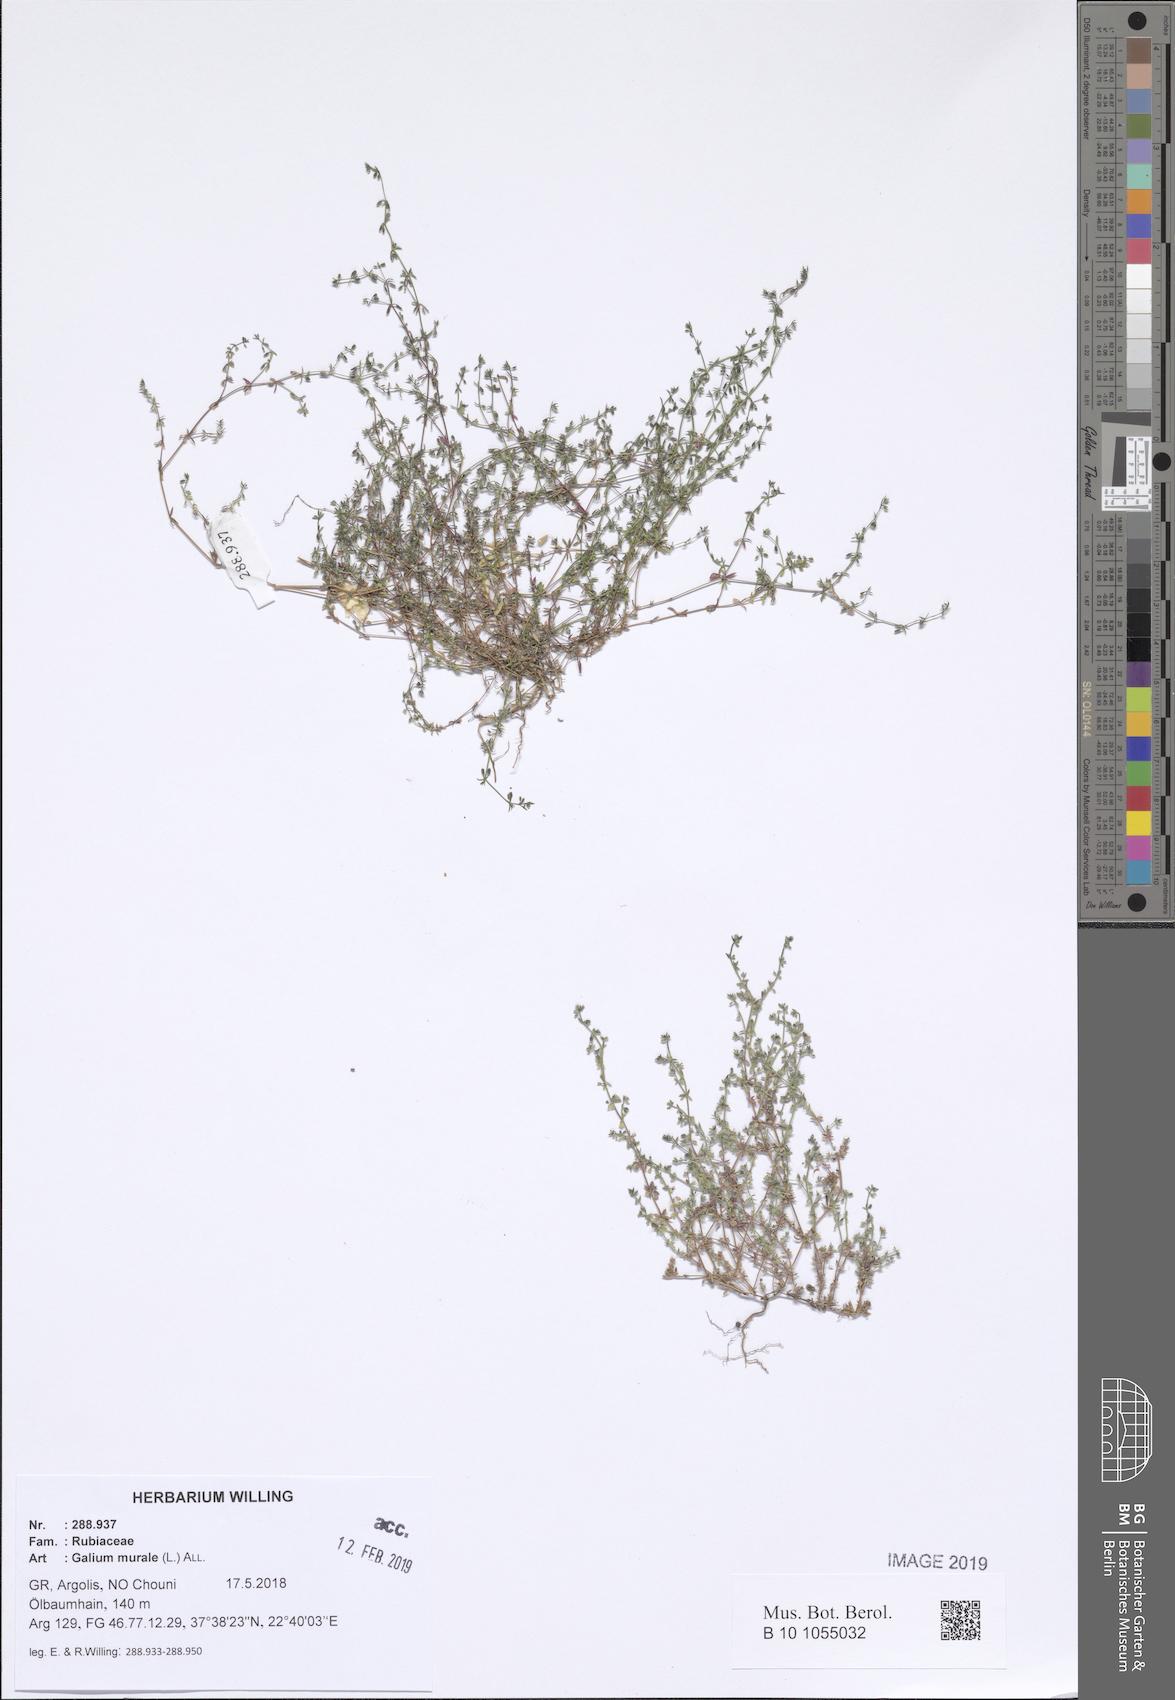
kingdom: Plantae
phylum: Tracheophyta
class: Magnoliopsida
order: Gentianales
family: Rubiaceae
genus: Galium
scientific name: Galium murale
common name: Yellow wall bedstraw
